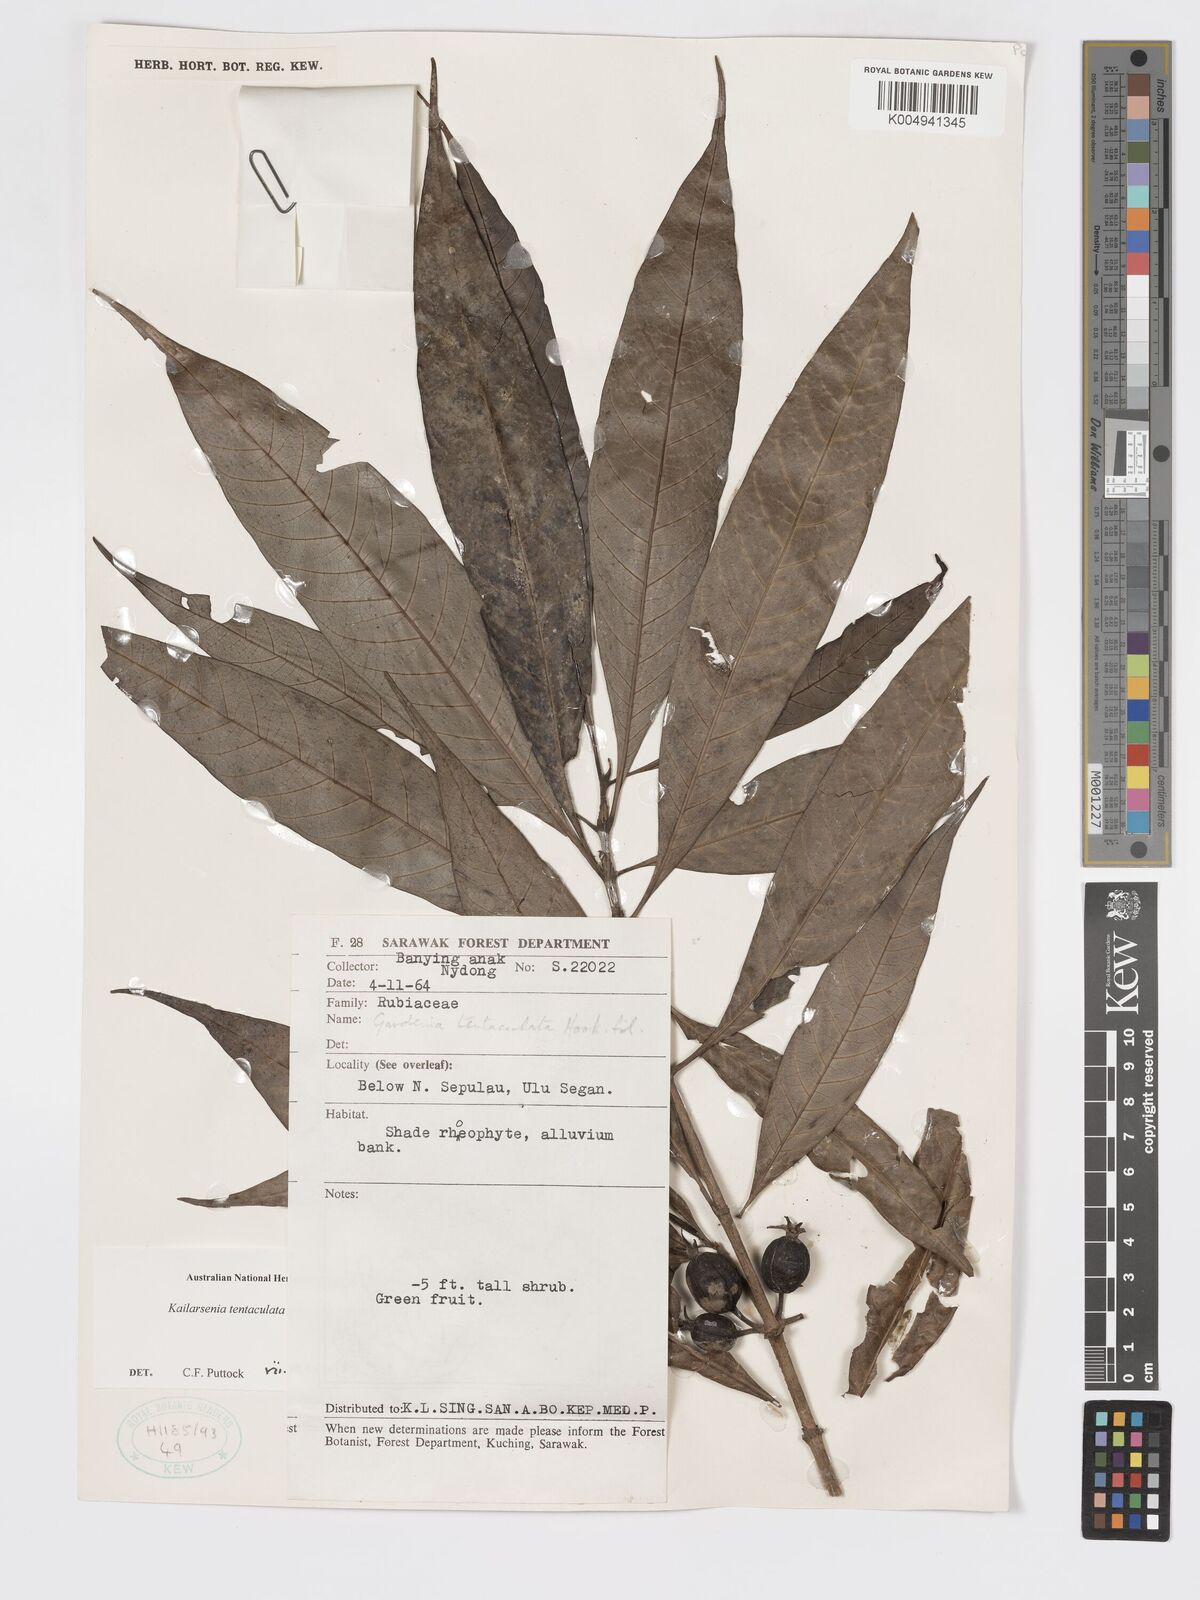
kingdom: Plantae
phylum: Tracheophyta
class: Magnoliopsida
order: Gentianales
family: Rubiaceae
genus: Kailarsenia
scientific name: Kailarsenia tentaculata
